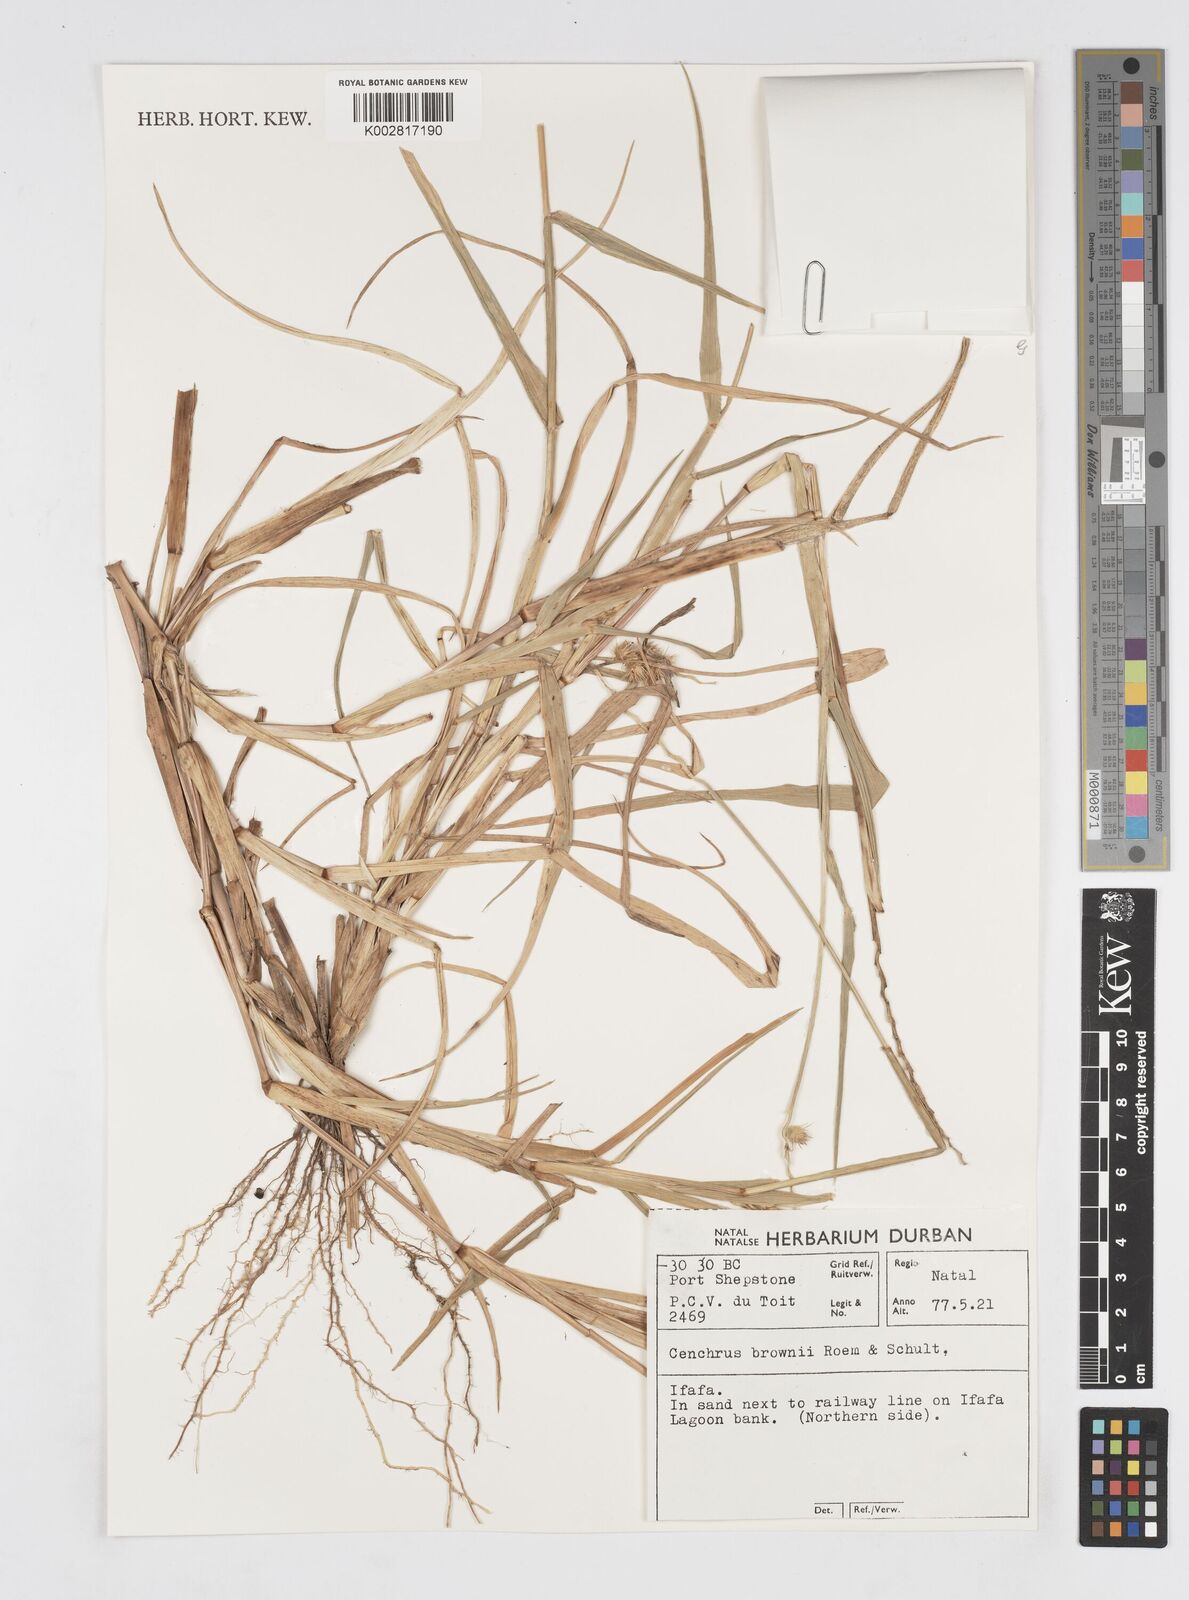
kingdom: Plantae
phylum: Tracheophyta
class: Liliopsida
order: Poales
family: Poaceae
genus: Cenchrus
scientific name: Cenchrus brownii
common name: Slim-bristle sandbur
